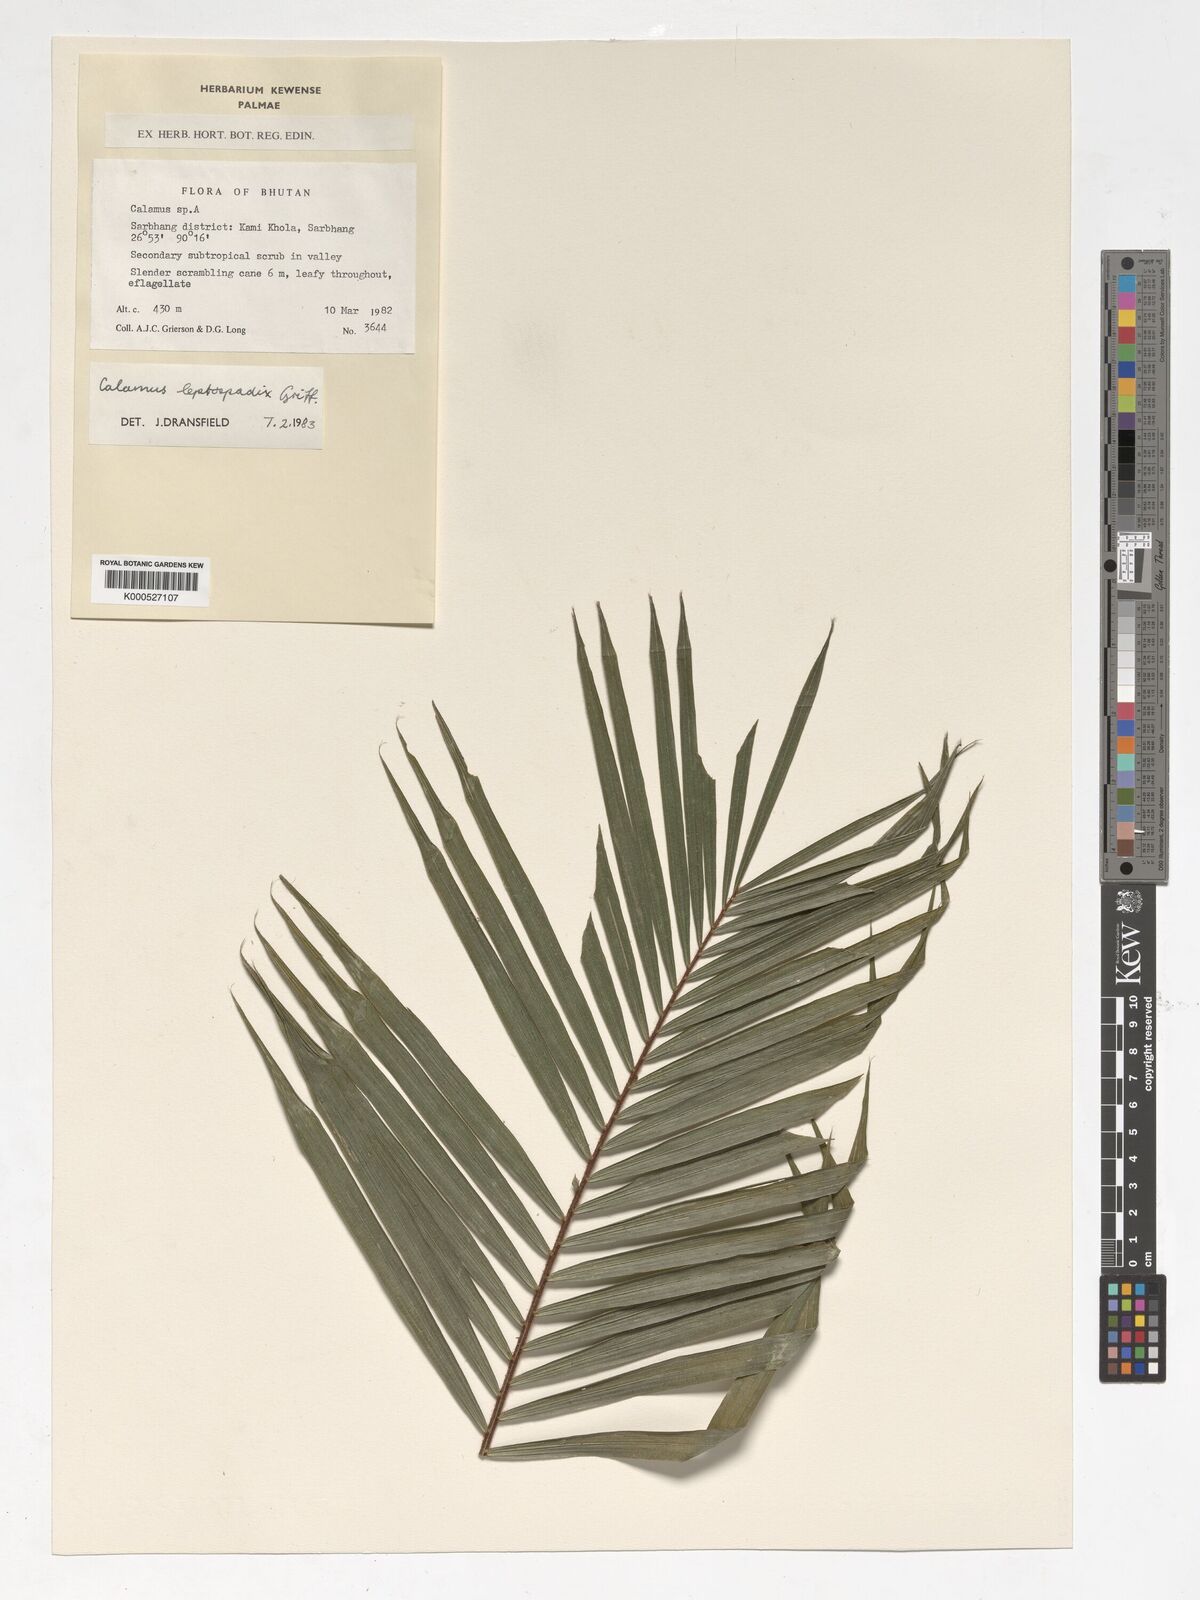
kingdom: Plantae
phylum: Tracheophyta
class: Liliopsida
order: Arecales
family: Arecaceae
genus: Calamus
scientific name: Calamus leptospadix
